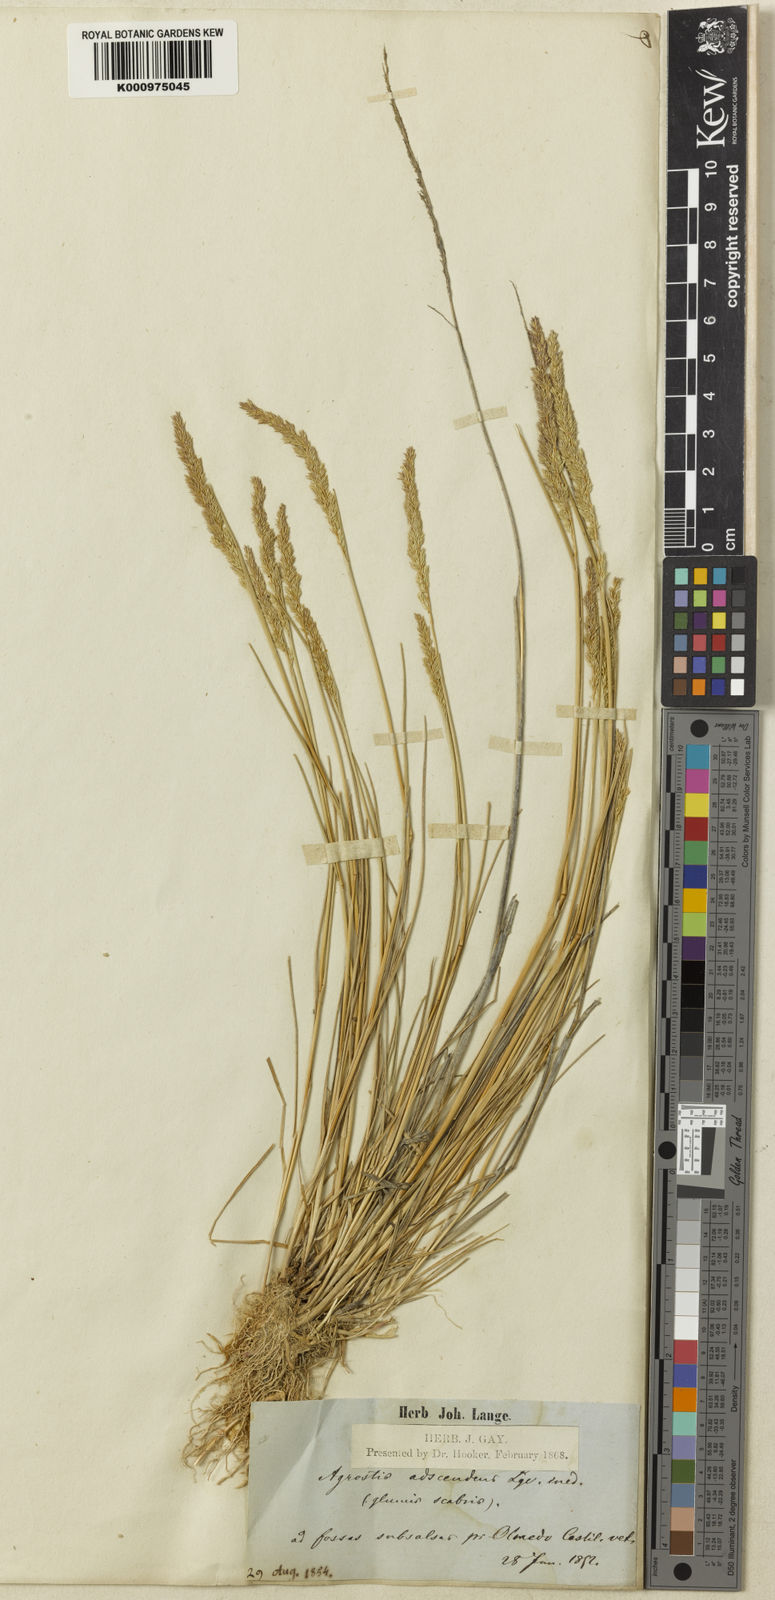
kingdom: Plantae
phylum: Tracheophyta
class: Liliopsida
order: Poales
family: Poaceae
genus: Agropogon
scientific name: Agropogon
